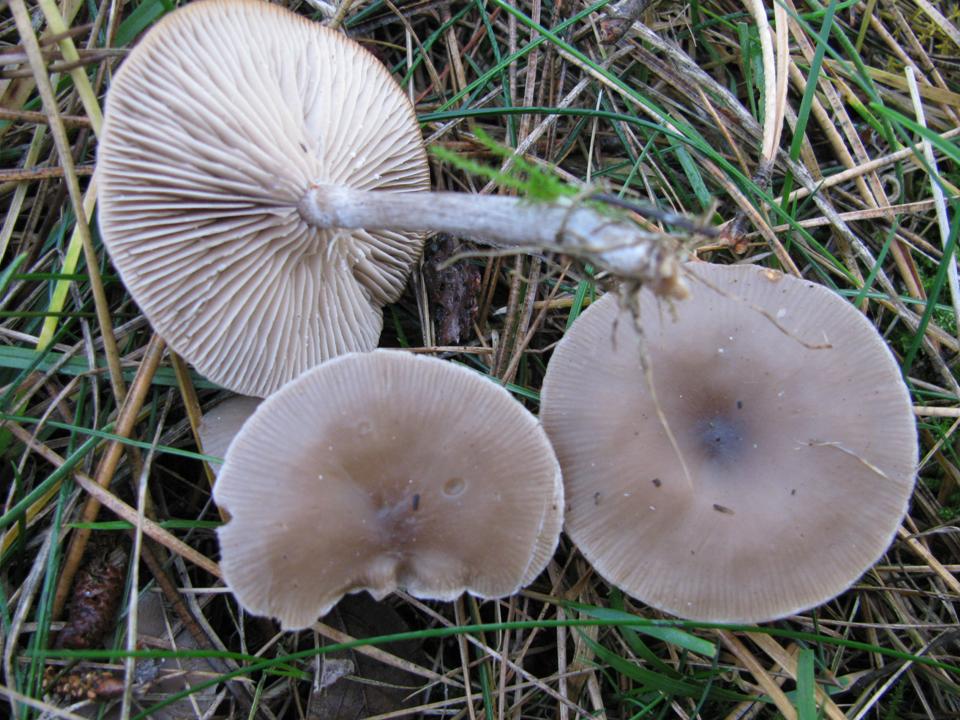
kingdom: Fungi
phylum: Basidiomycota
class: Agaricomycetes
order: Agaricales
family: Tricholomataceae
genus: Clitocybe
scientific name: Clitocybe metachroa
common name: grå tragthat
